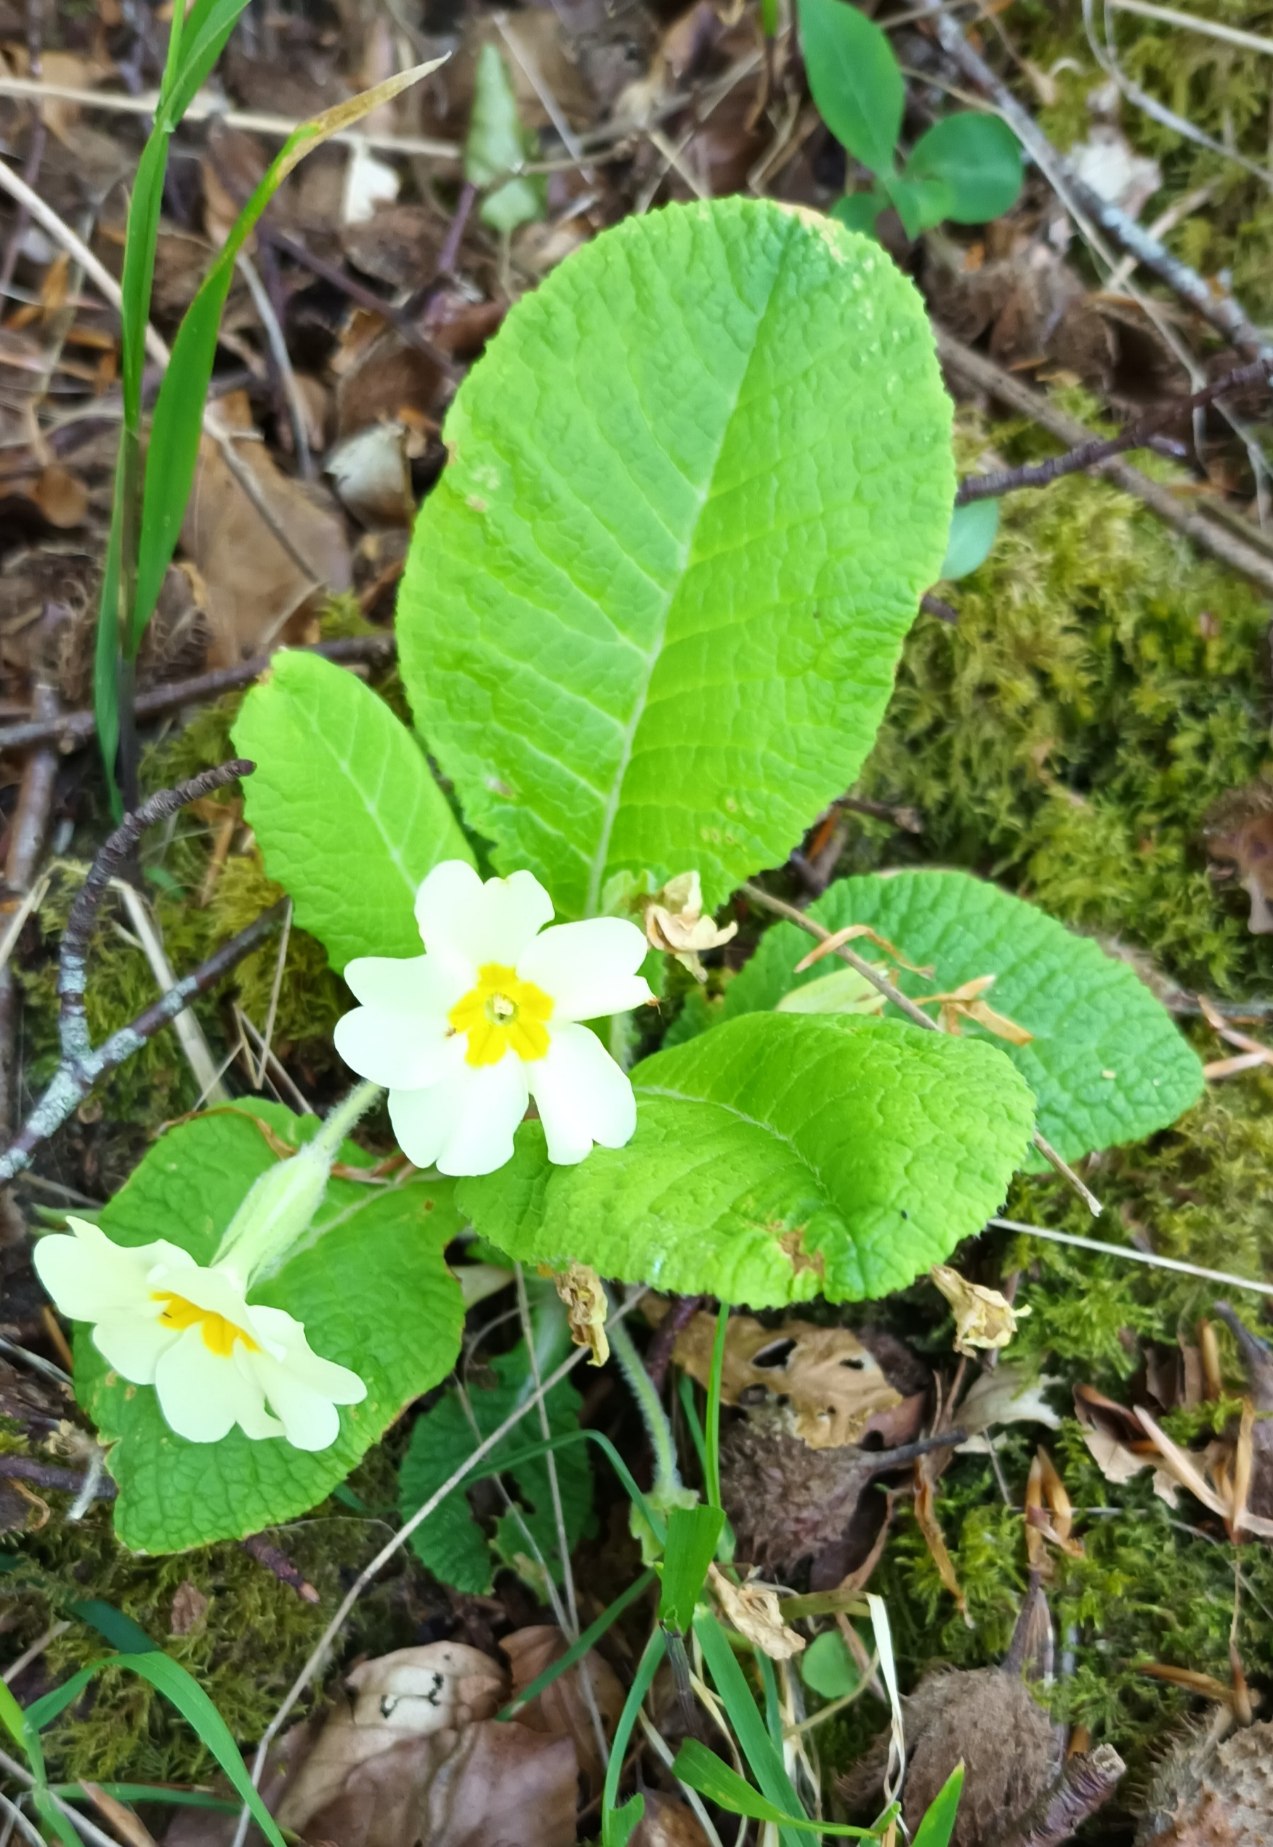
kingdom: Plantae
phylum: Tracheophyta
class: Magnoliopsida
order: Ericales
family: Primulaceae
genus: Primula
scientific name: Primula vulgaris
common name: Storblomstret kodriver
